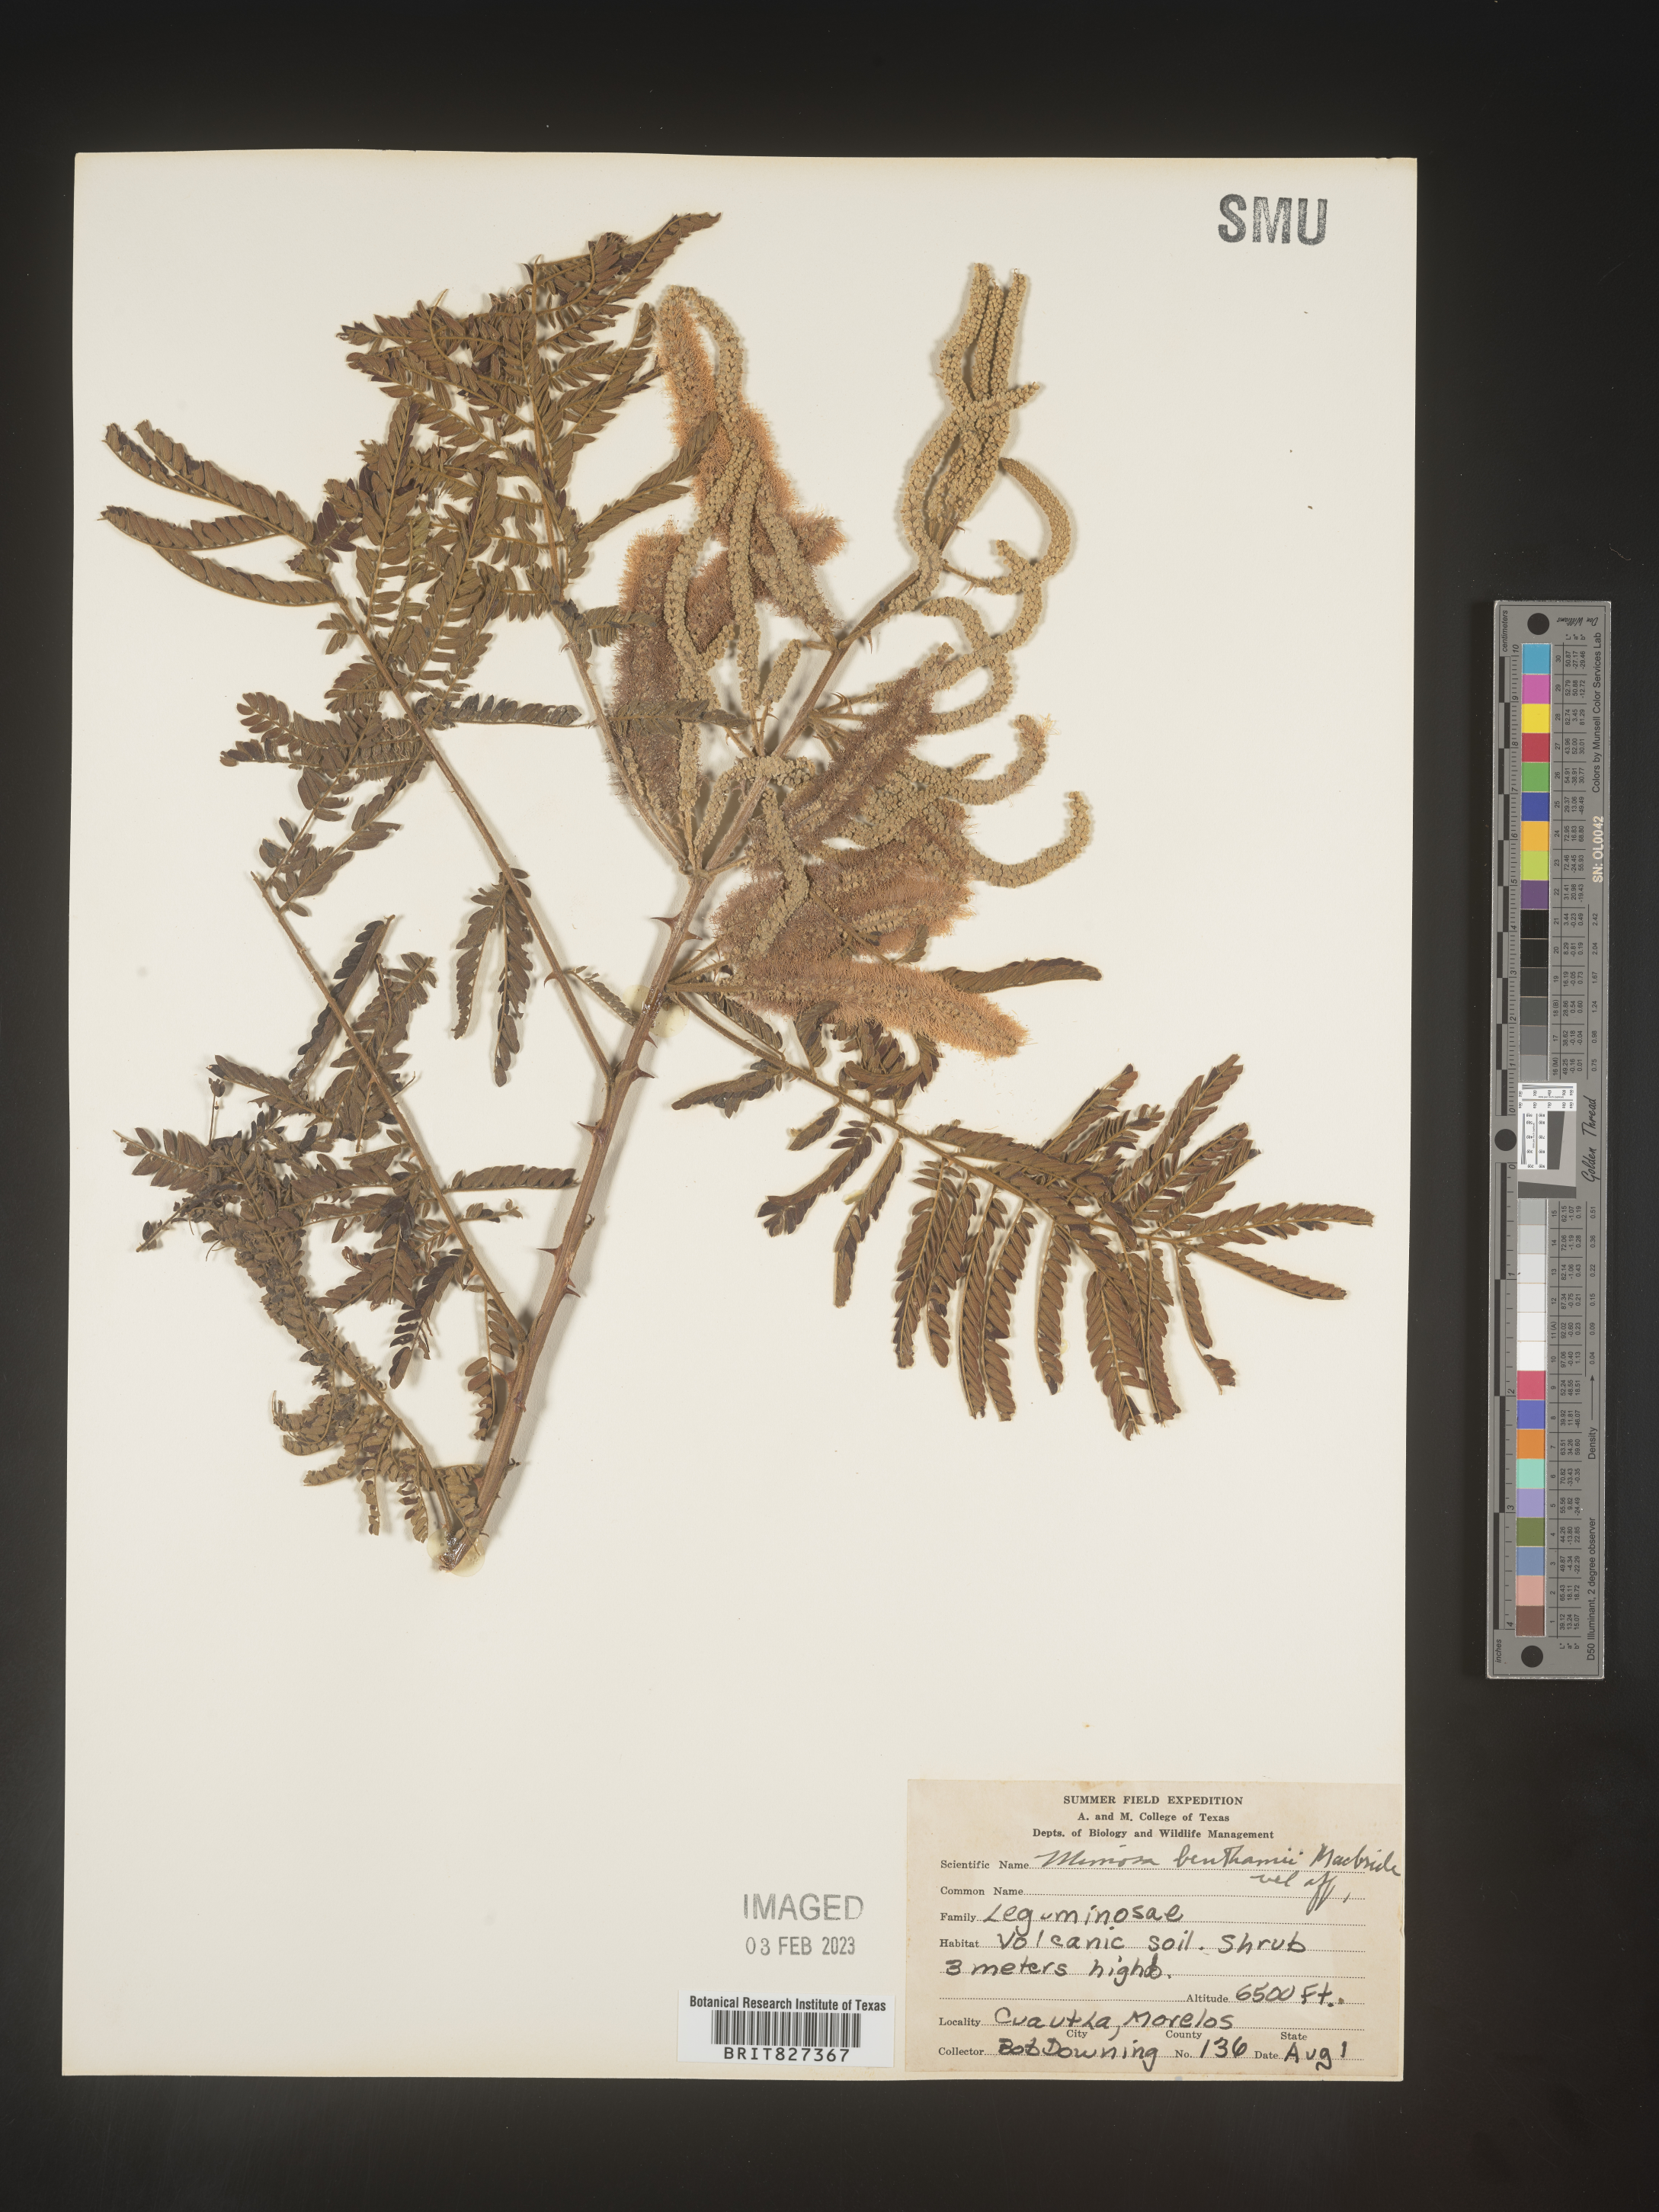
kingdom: Plantae
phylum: Tracheophyta
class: Magnoliopsida
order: Fabales
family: Fabaceae
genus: Mimosa
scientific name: Mimosa
